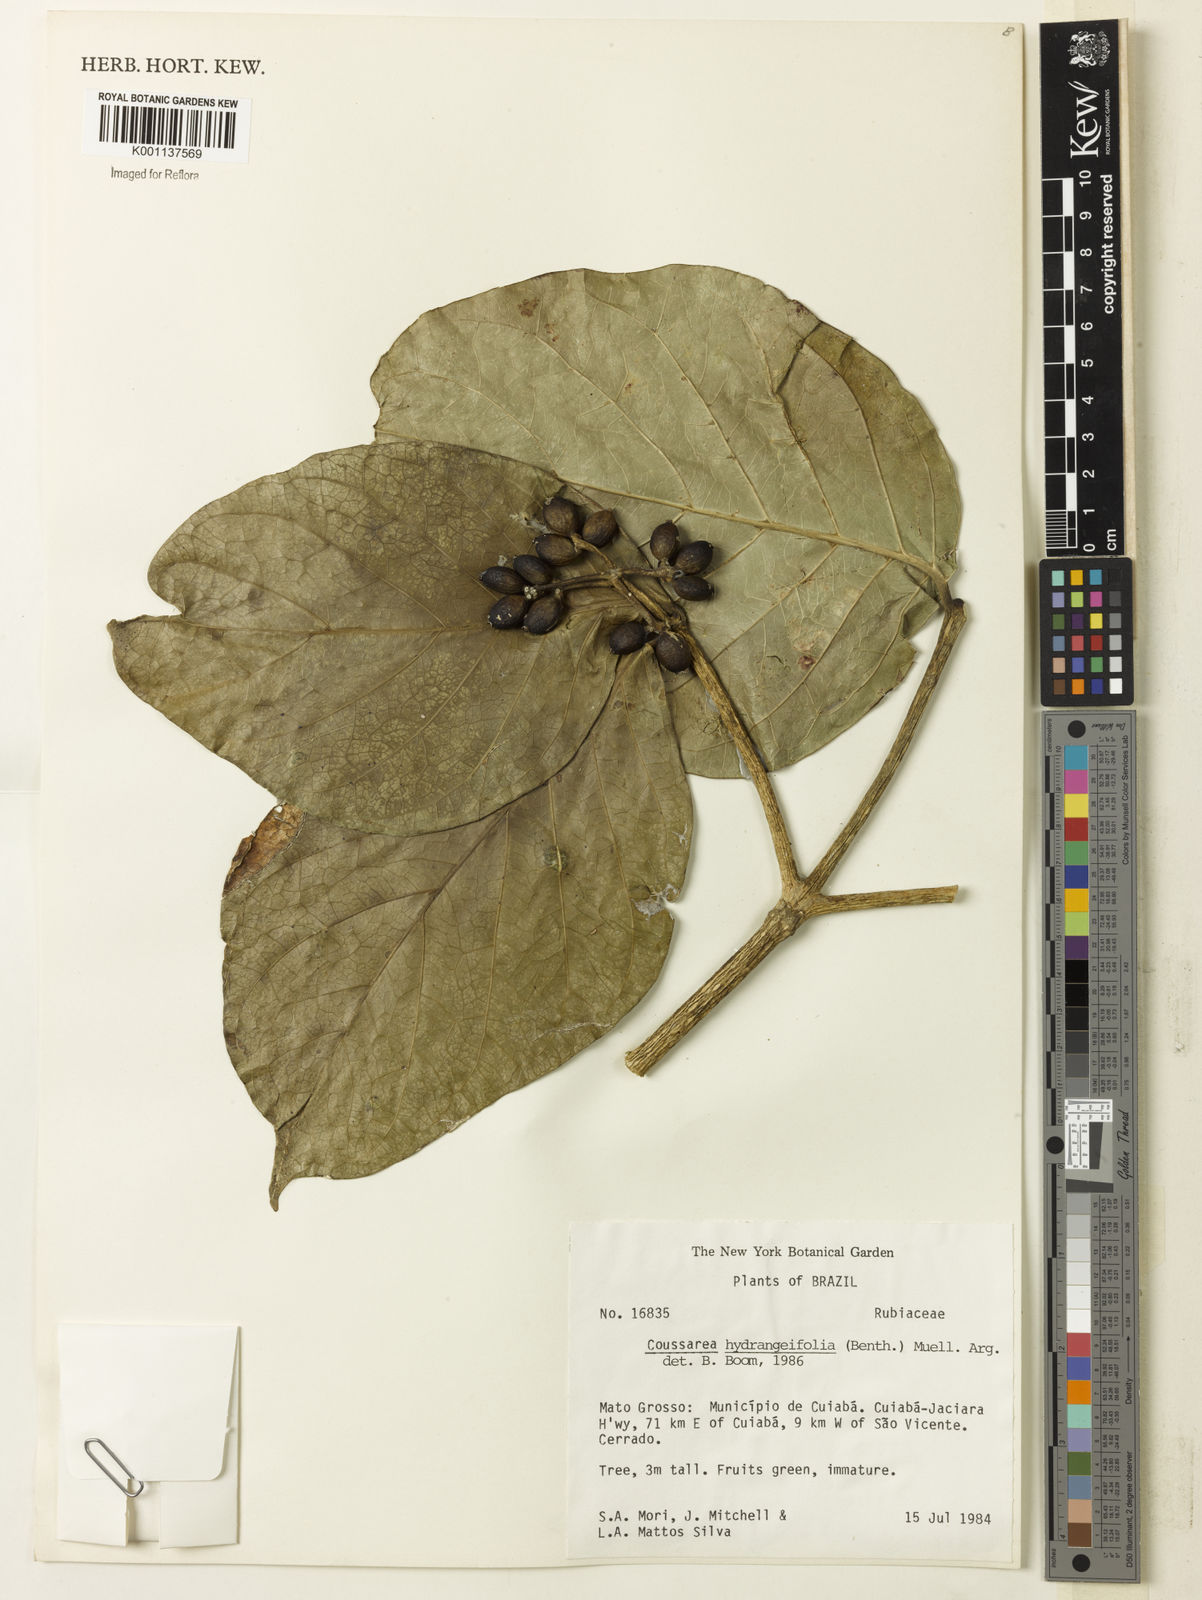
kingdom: Plantae
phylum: Tracheophyta
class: Magnoliopsida
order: Gentianales
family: Rubiaceae
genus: Coussarea
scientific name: Coussarea
